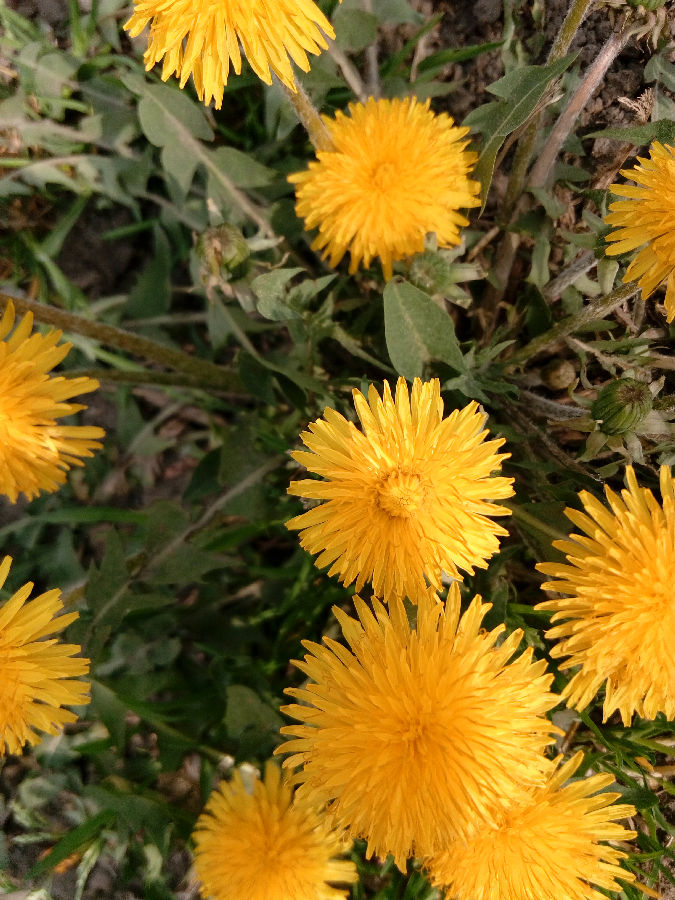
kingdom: Plantae
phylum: Tracheophyta
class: Magnoliopsida
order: Asterales
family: Asteraceae
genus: Taraxacum
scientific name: Taraxacum officinale
